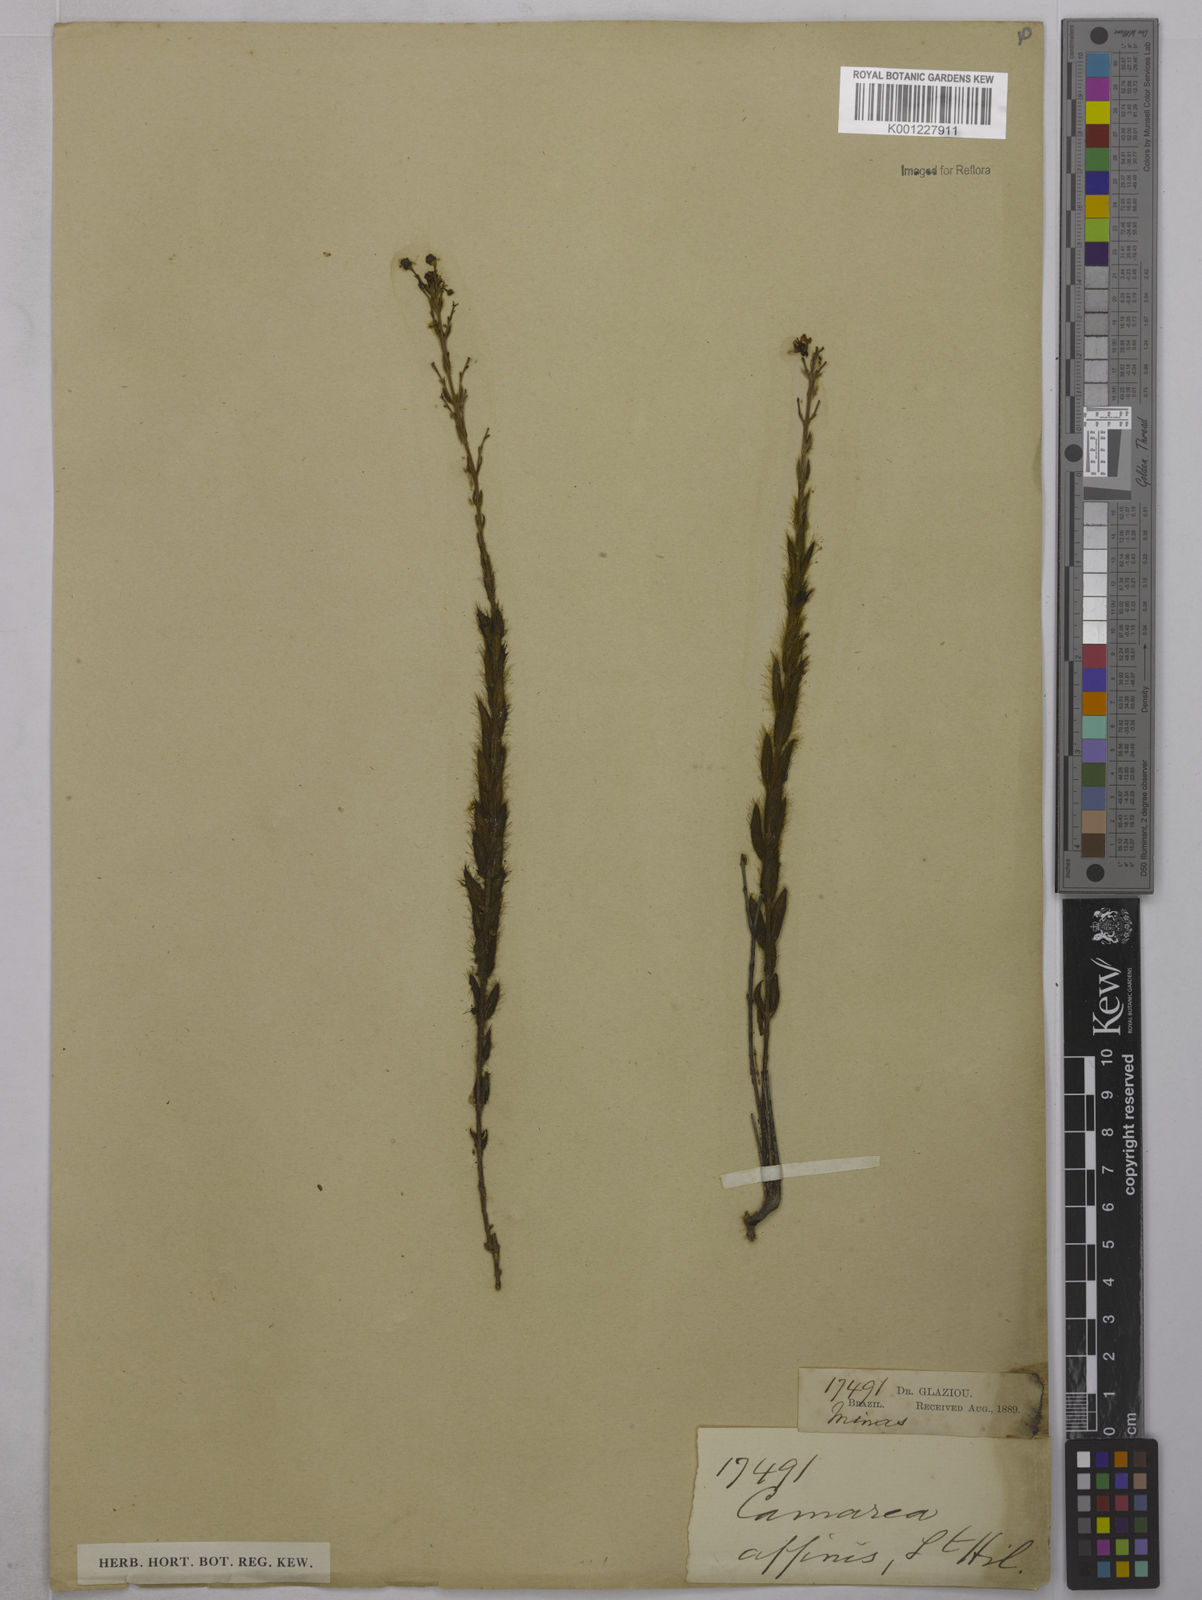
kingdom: Plantae
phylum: Tracheophyta
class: Magnoliopsida
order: Malpighiales
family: Malpighiaceae
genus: Camarea
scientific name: Camarea affinis
